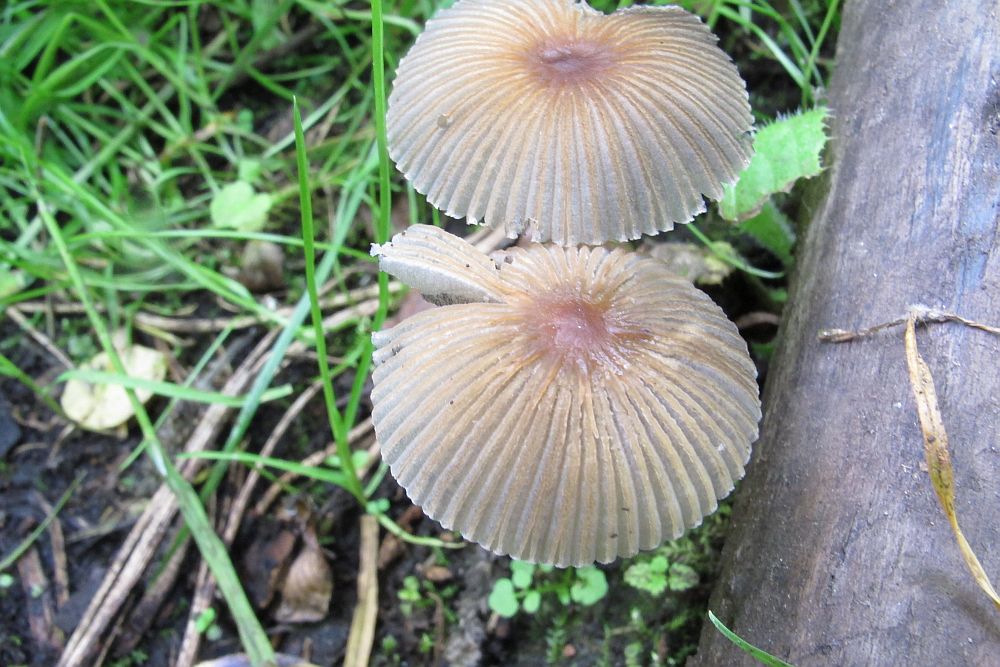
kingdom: Fungi
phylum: Basidiomycota
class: Agaricomycetes
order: Agaricales
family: Psathyrellaceae
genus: Parasola
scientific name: Parasola kuehneri
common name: skygge-hjulhat
